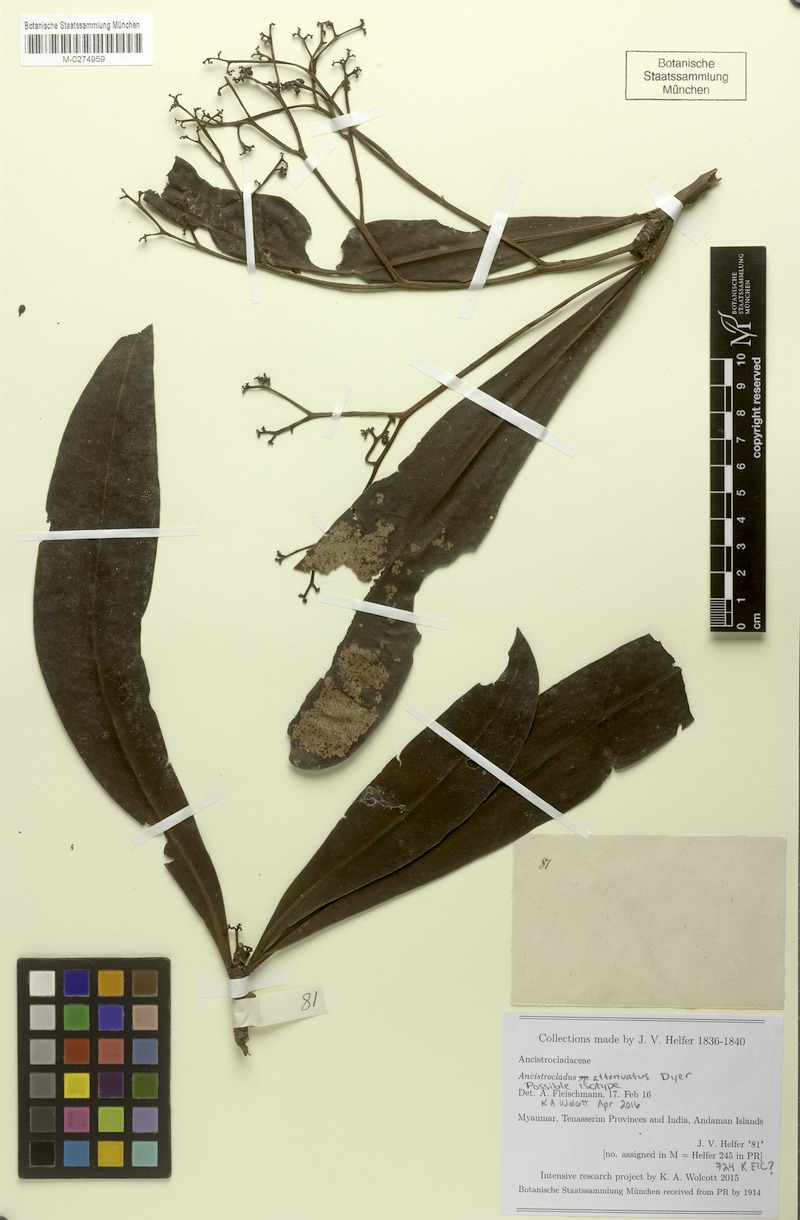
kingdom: Plantae
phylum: Tracheophyta
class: Magnoliopsida
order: Caryophyllales
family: Ancistrocladaceae
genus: Ancistrocladus
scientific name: Ancistrocladus attenuatus
